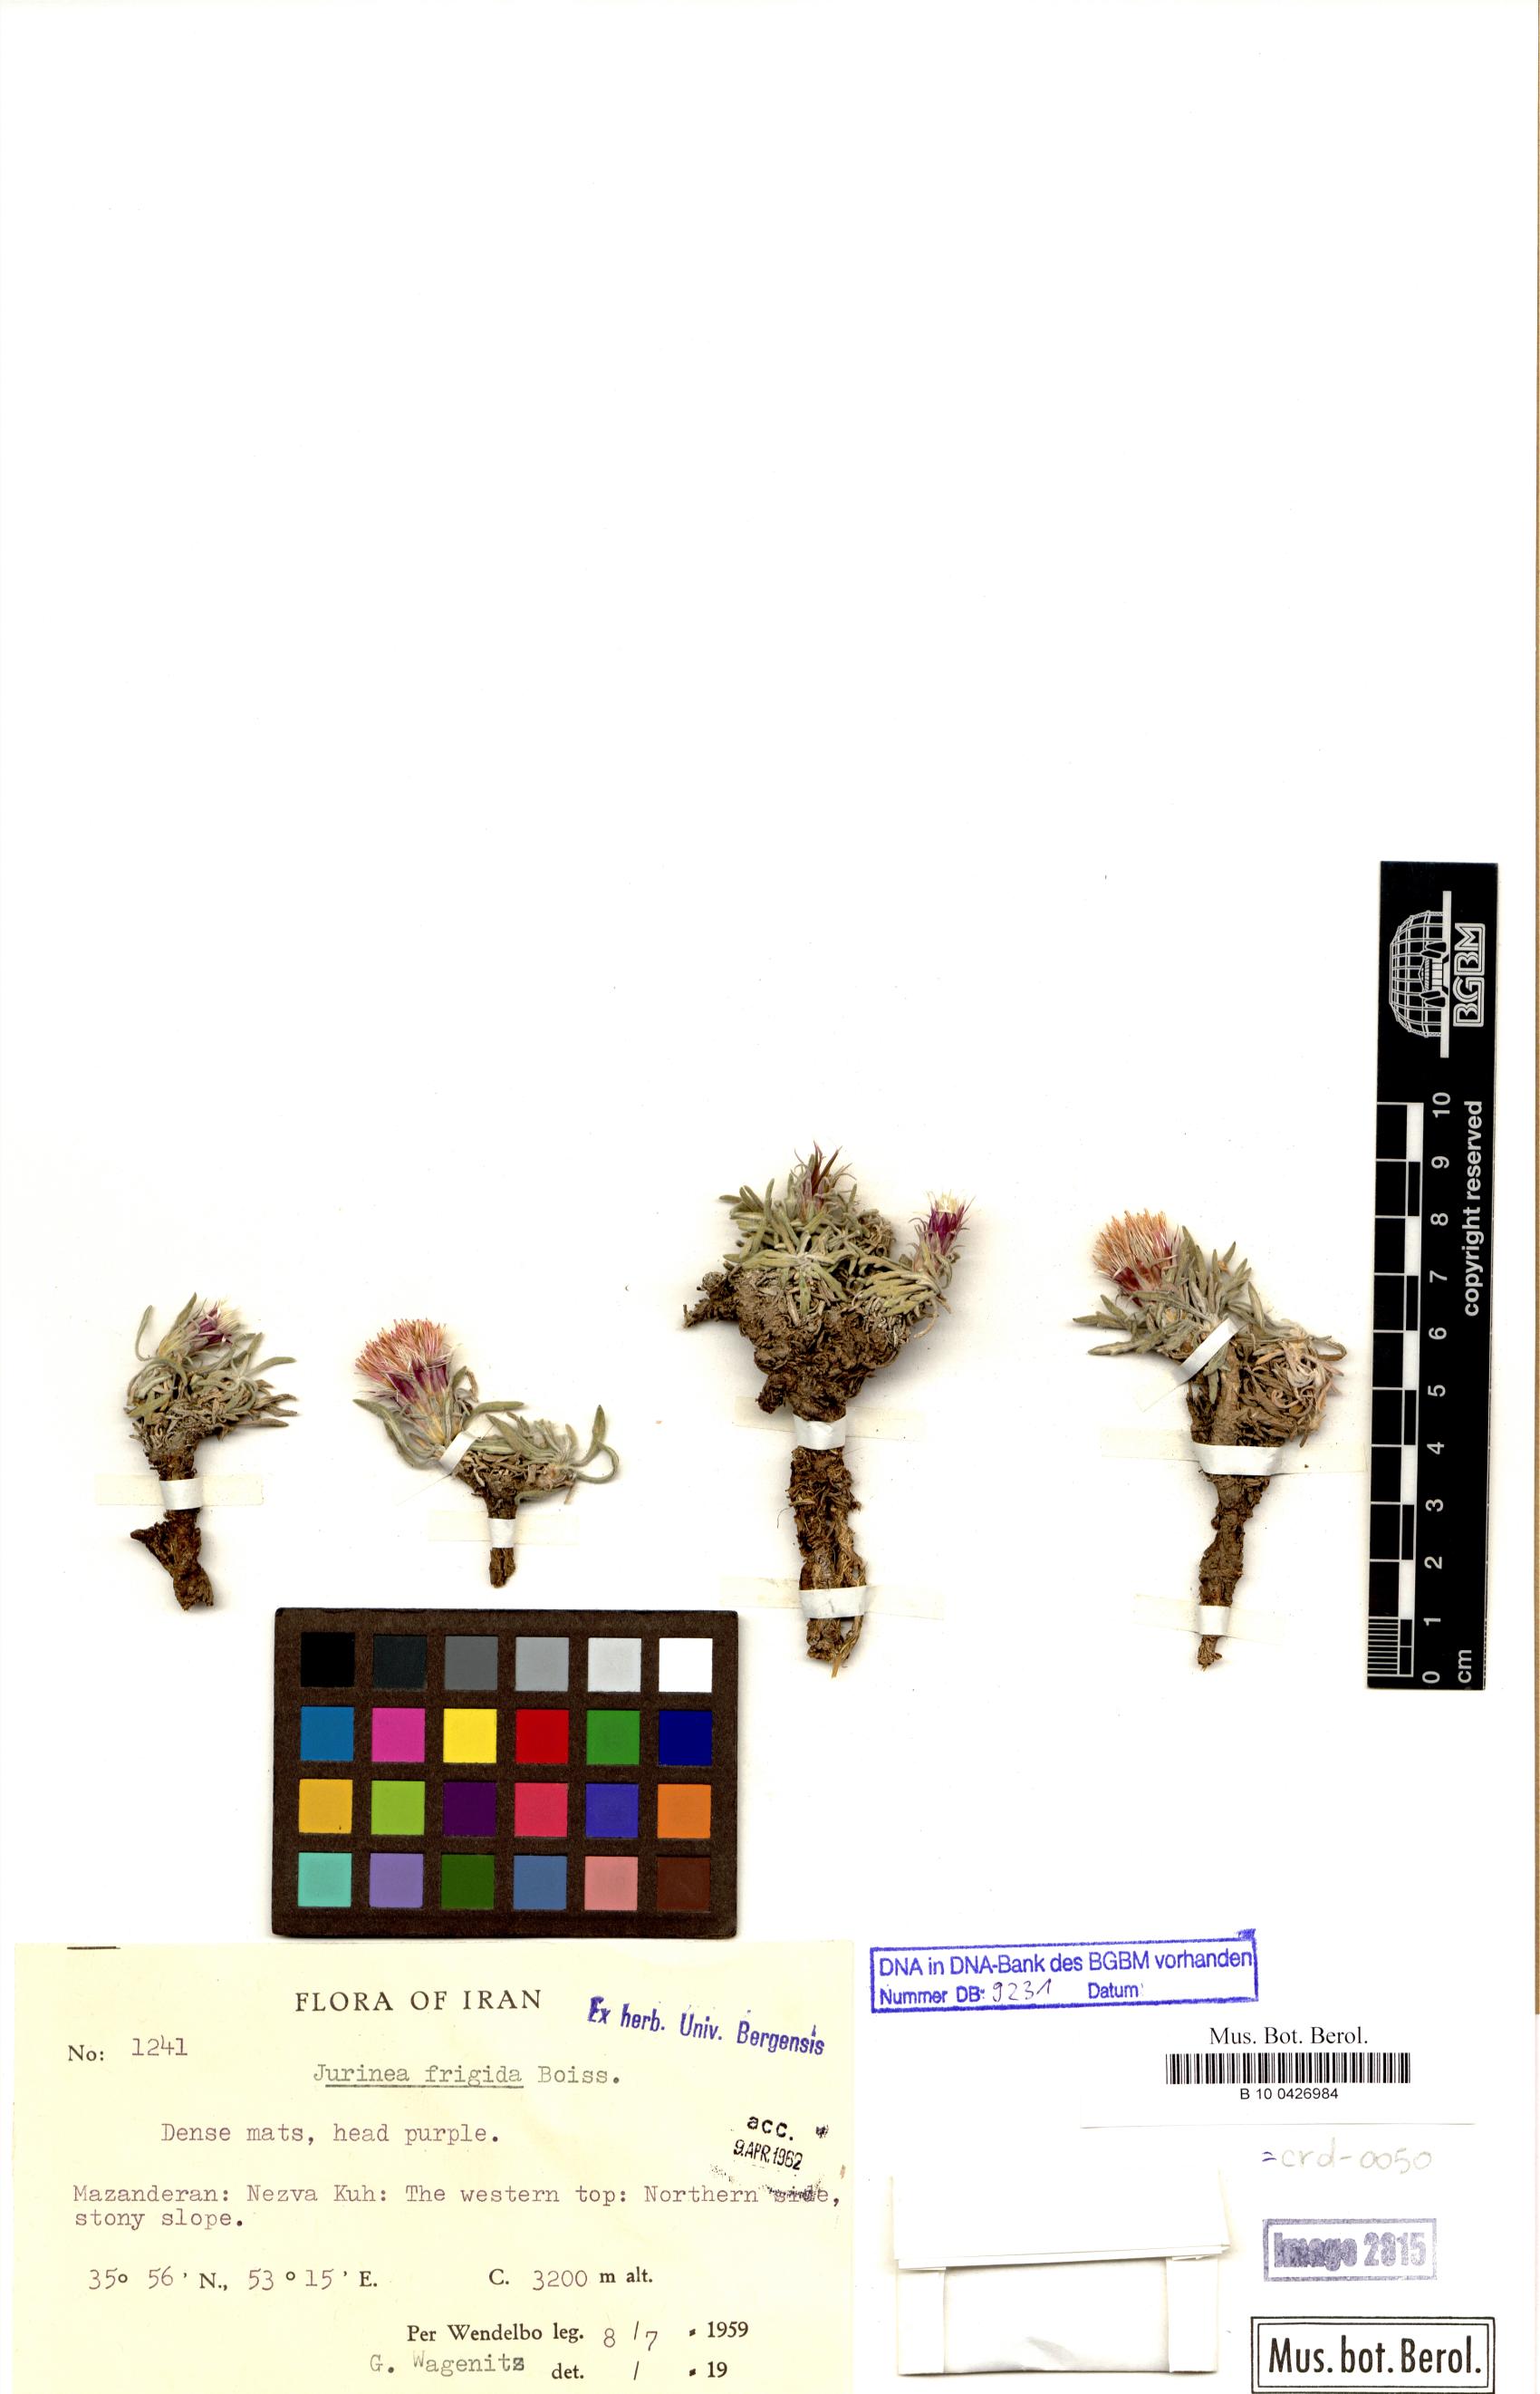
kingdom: Plantae
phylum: Tracheophyta
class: Magnoliopsida
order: Asterales
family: Asteraceae
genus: Jurinea
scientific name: Jurinea frigida
